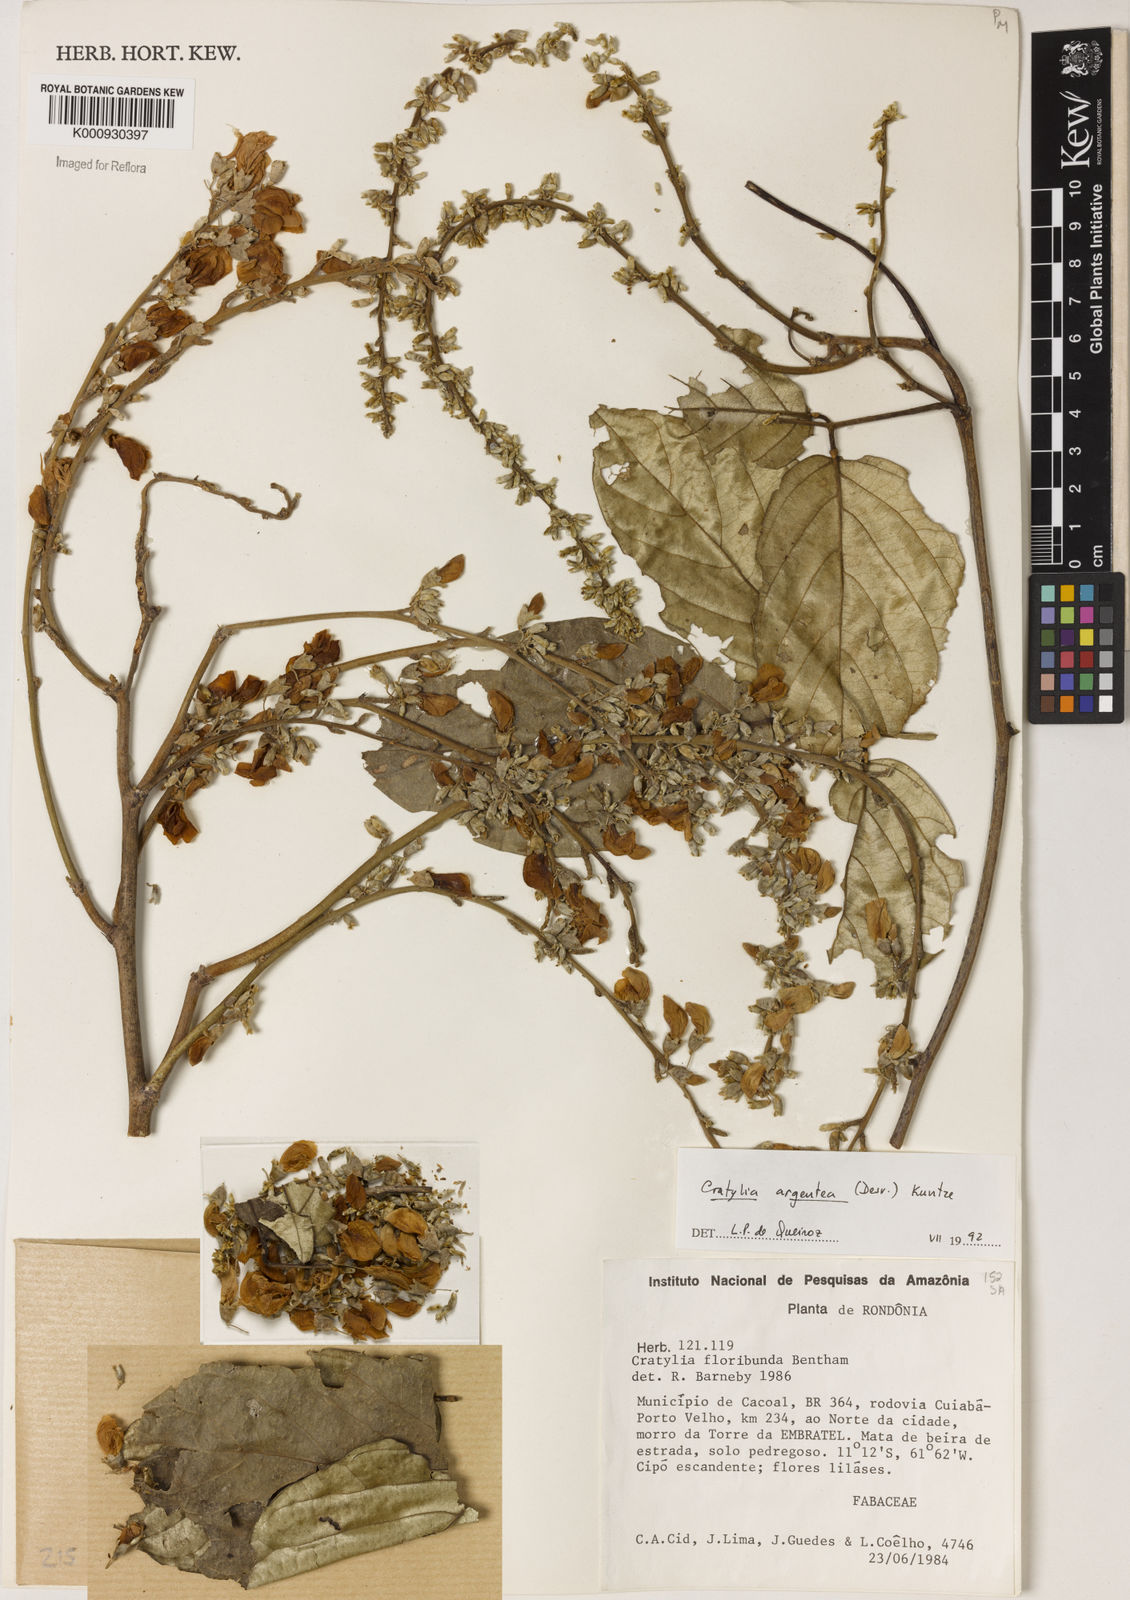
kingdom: Plantae
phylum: Tracheophyta
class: Magnoliopsida
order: Fabales
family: Fabaceae
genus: Cratylia
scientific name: Cratylia argentea
